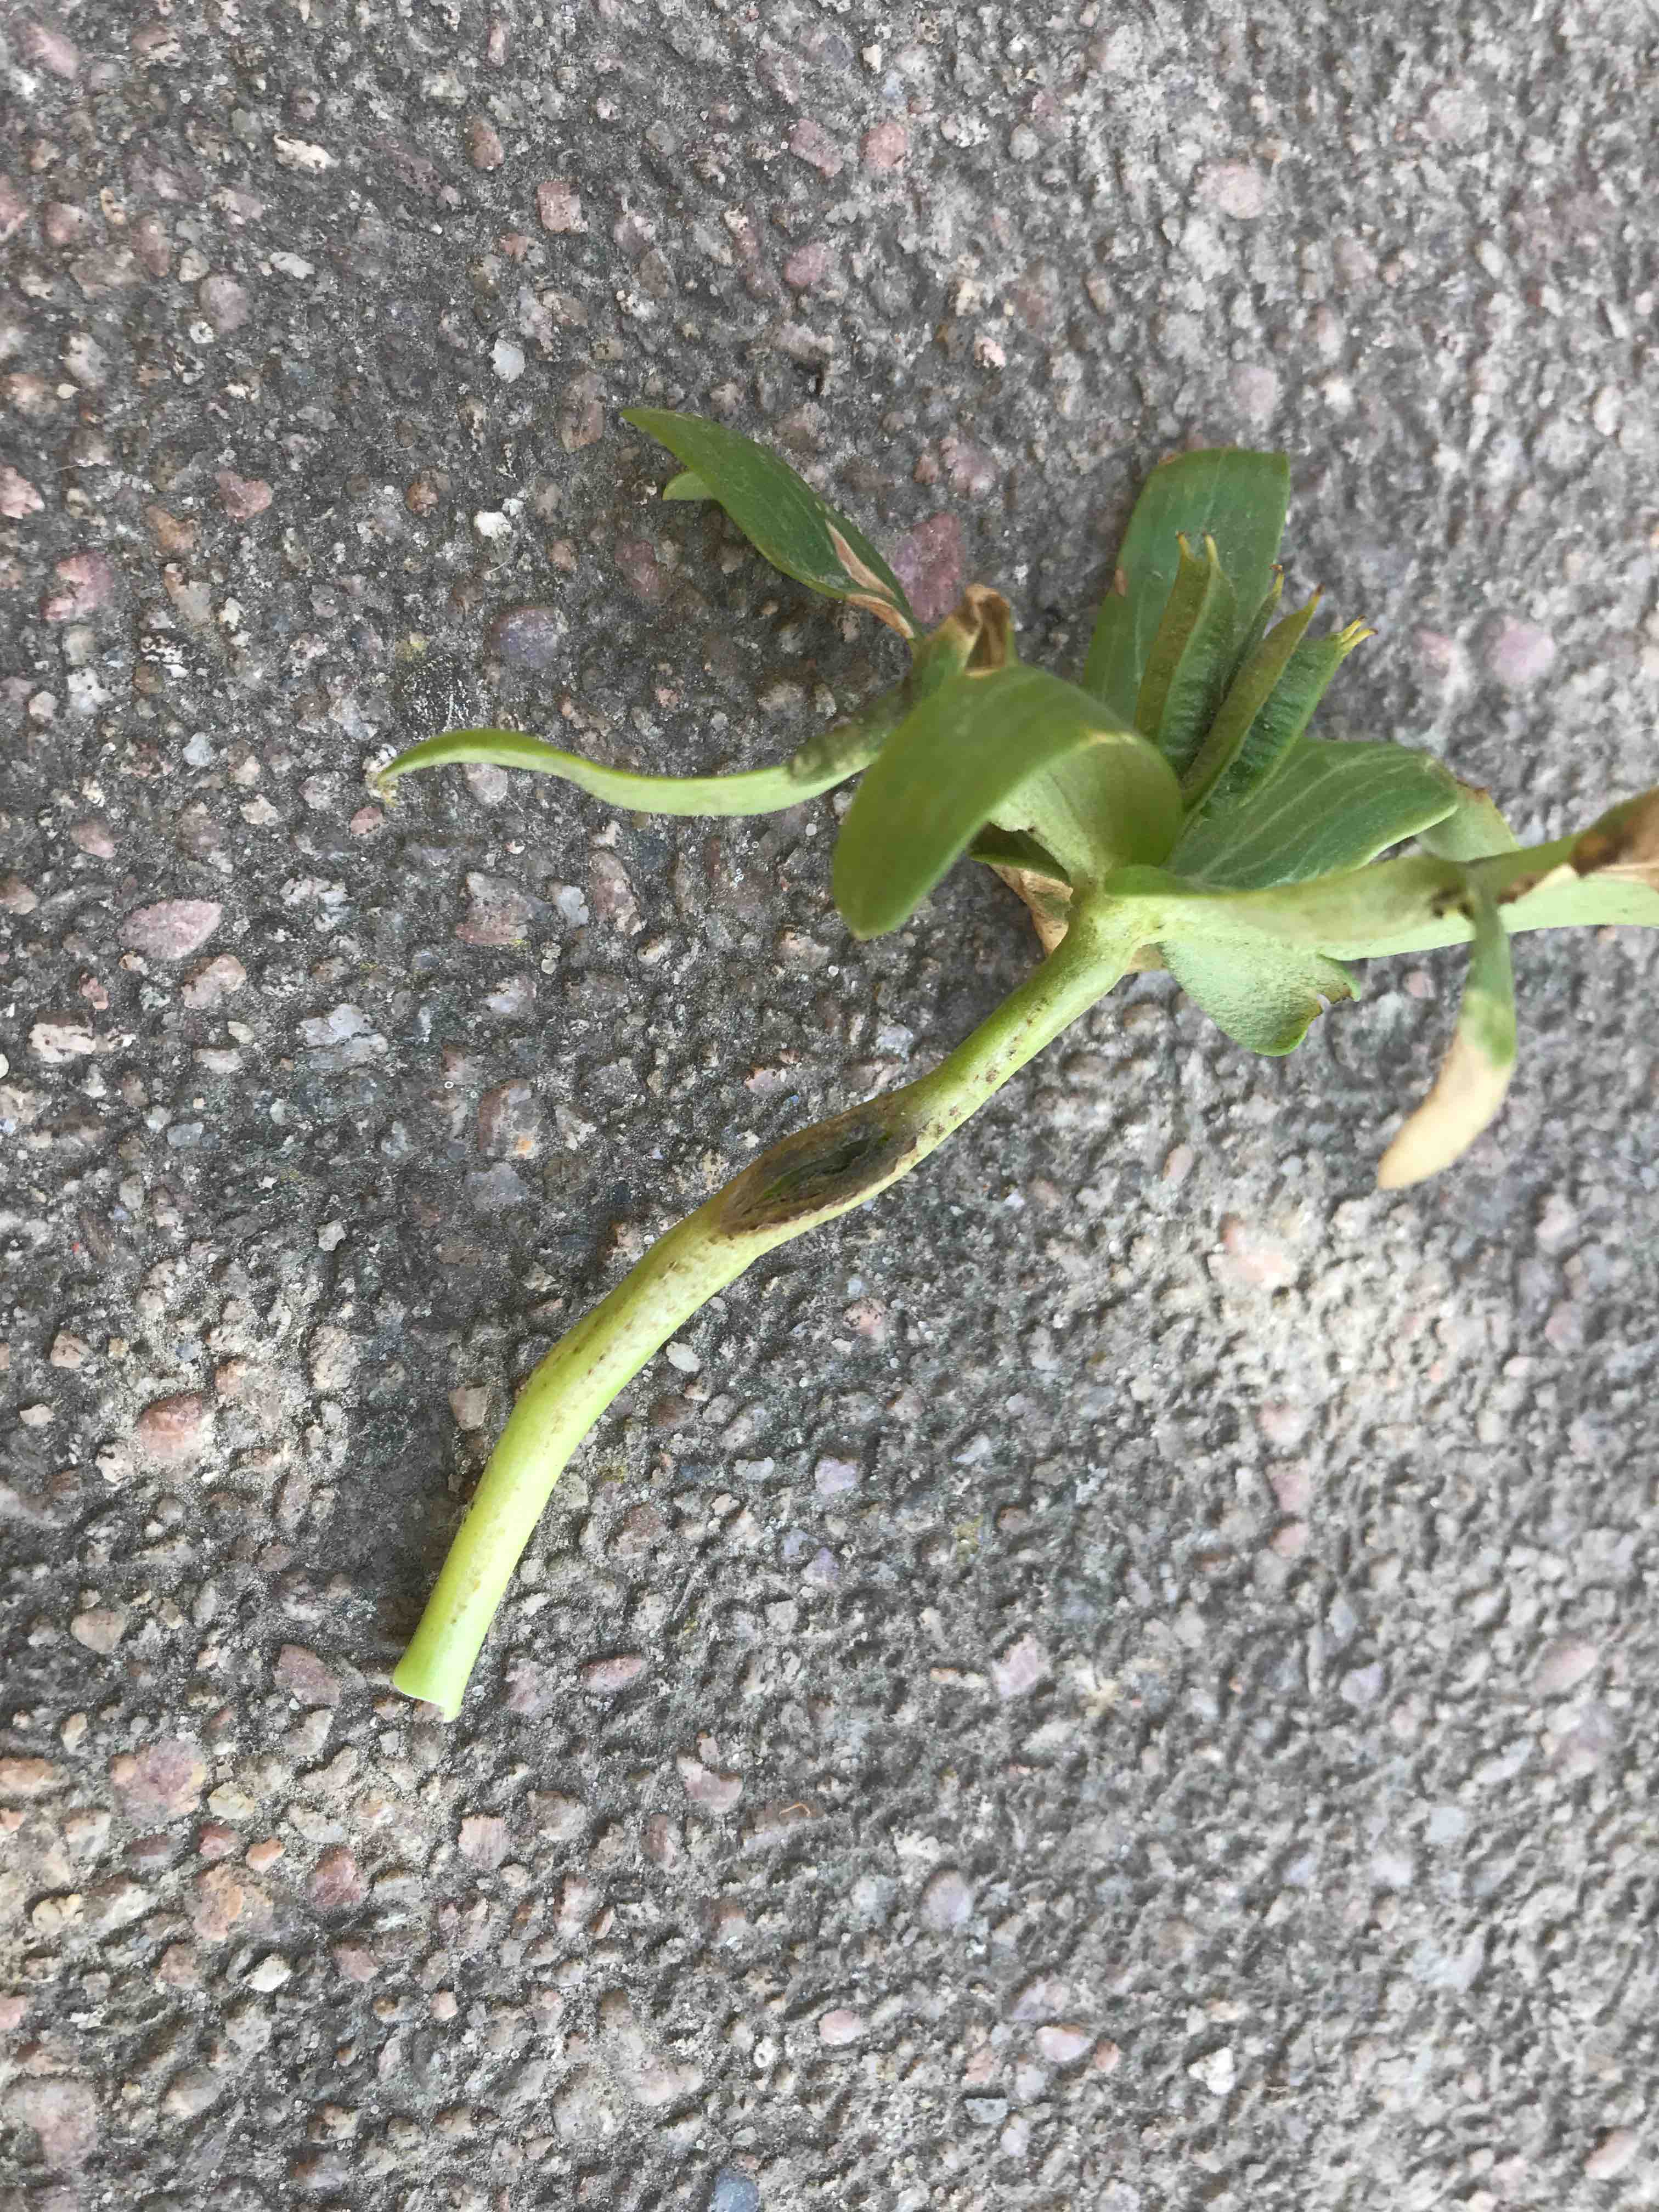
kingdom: Fungi
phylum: Basidiomycota
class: Ustilaginomycetes
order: Urocystidales
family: Urocystidaceae
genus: Urocystis
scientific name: Urocystis eranthidis
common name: erantis-brand
